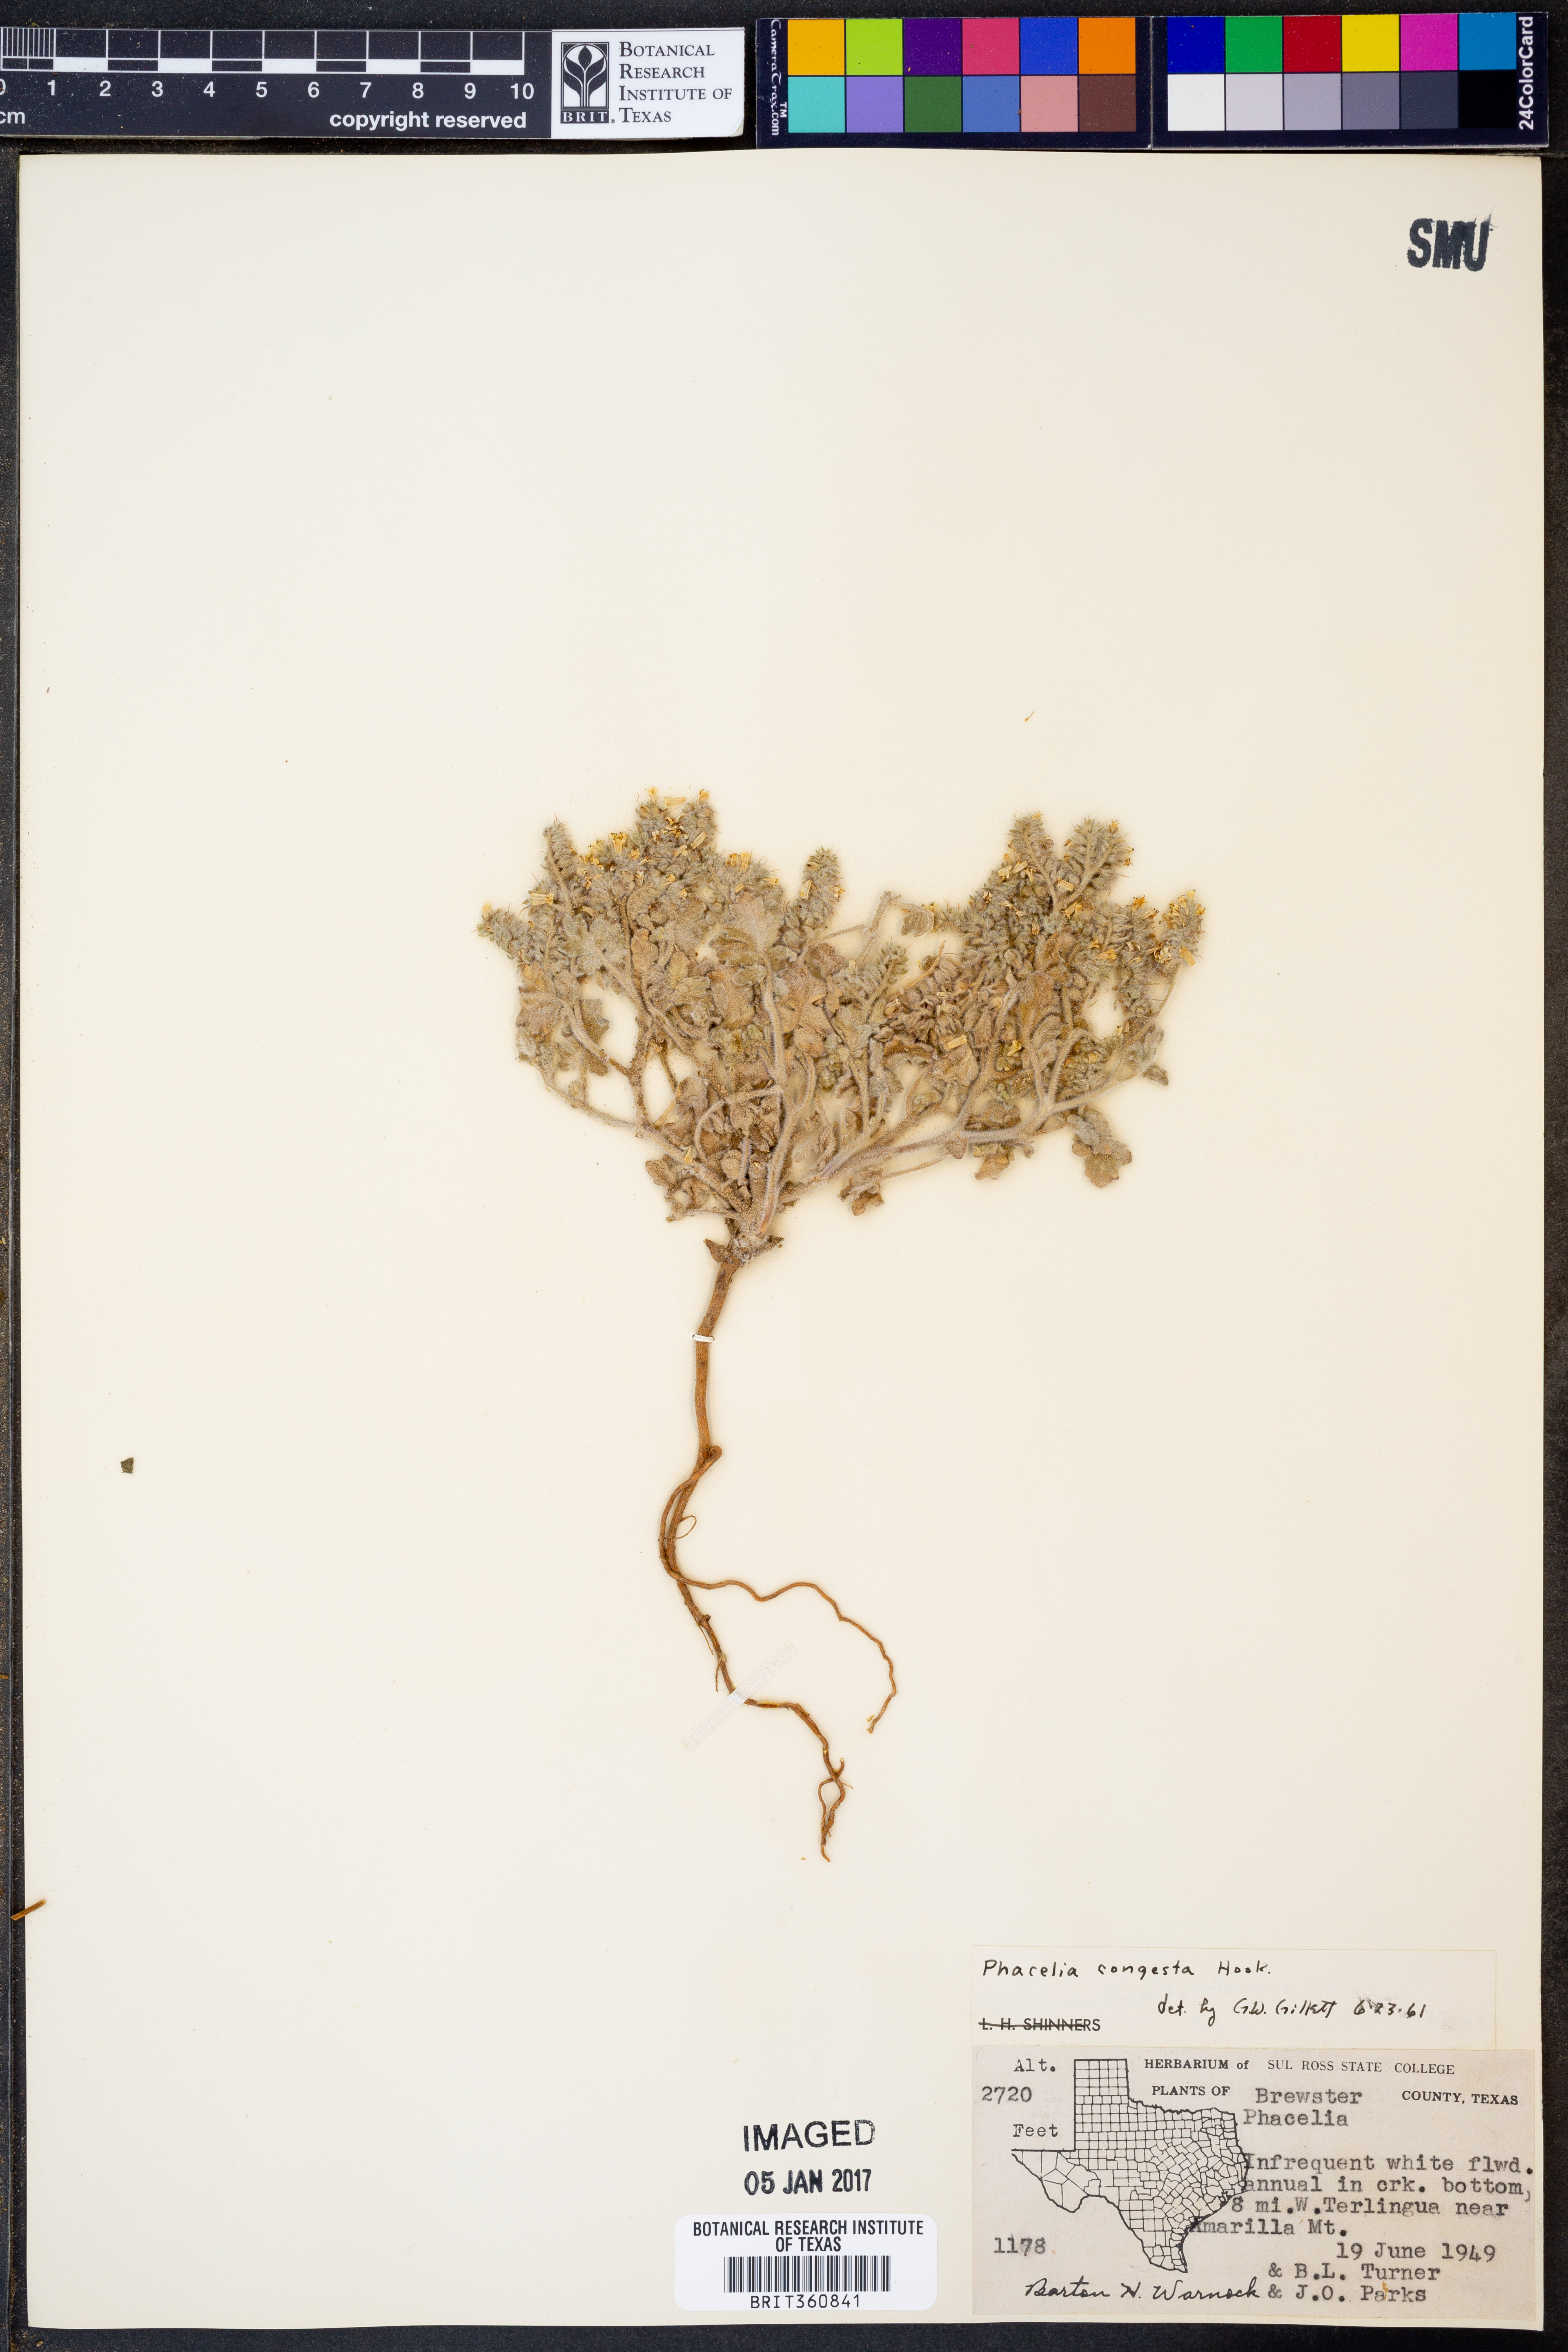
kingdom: Plantae
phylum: Tracheophyta
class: Magnoliopsida
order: Boraginales
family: Hydrophyllaceae
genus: Phacelia
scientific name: Phacelia congesta
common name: Blue curls
